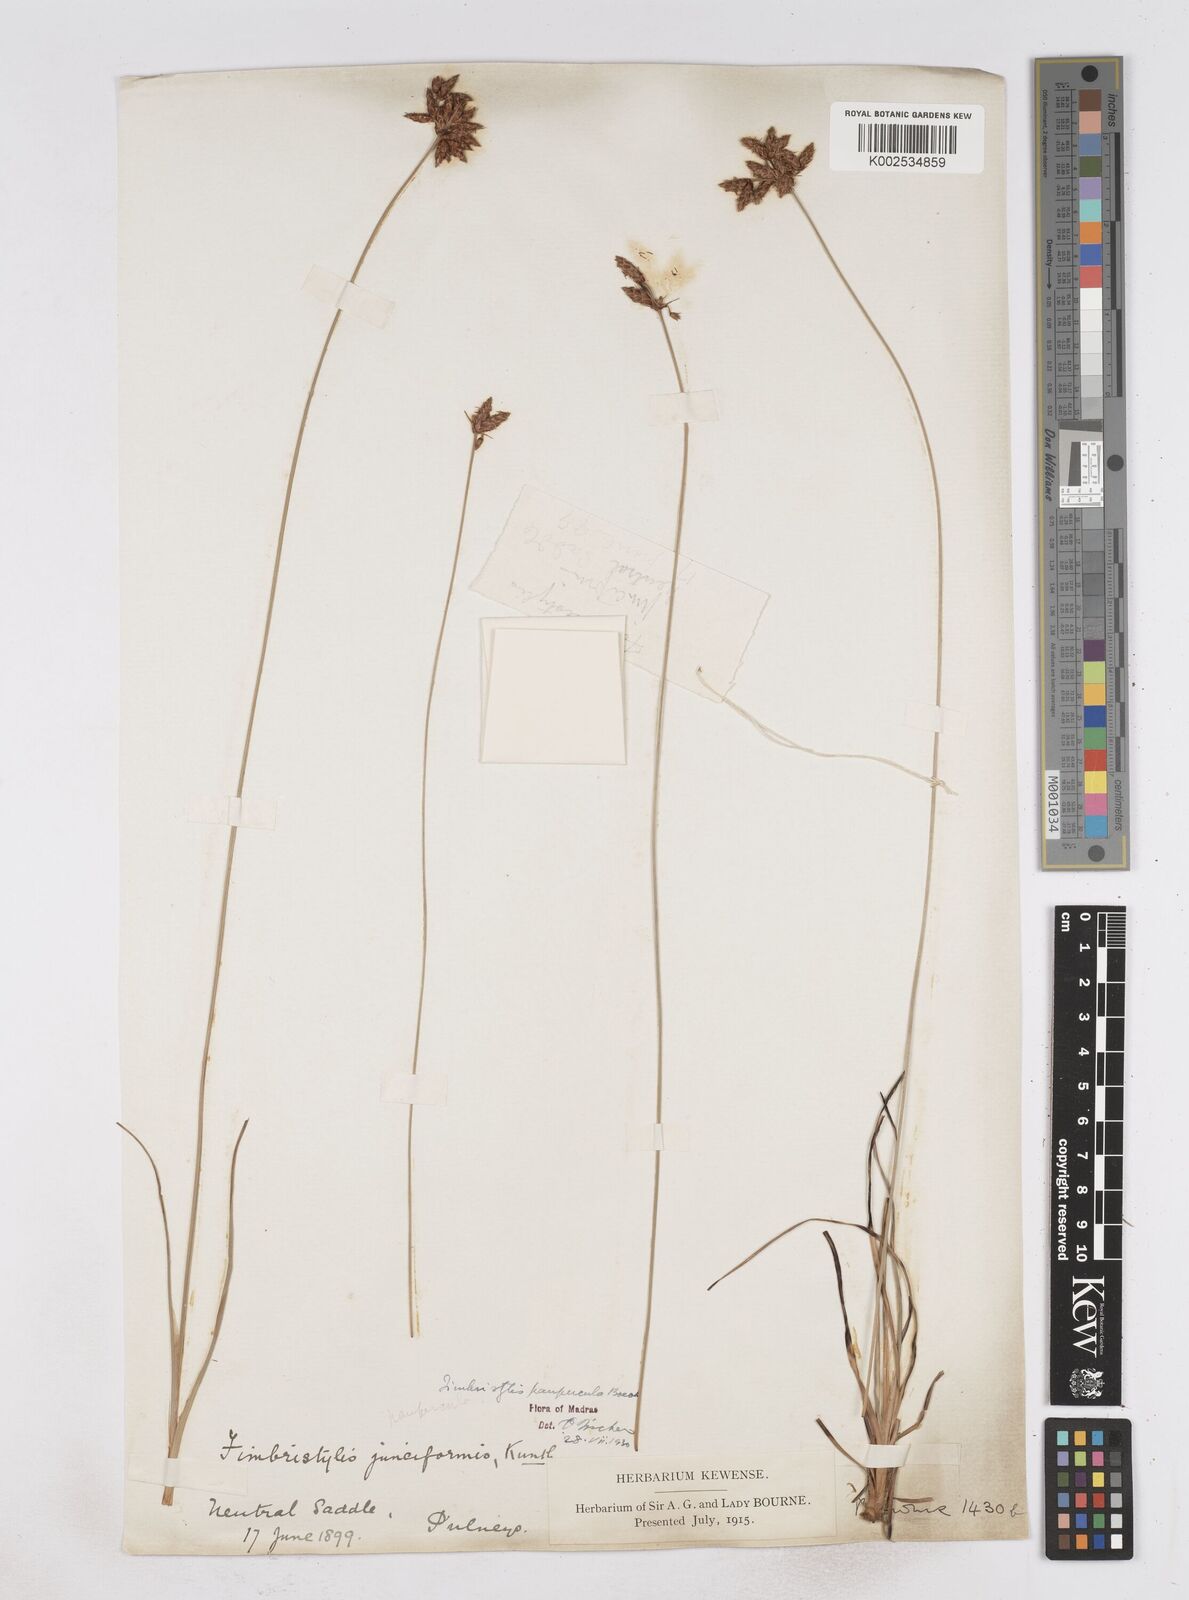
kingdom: Plantae
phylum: Tracheophyta
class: Liliopsida
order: Poales
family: Cyperaceae
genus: Fimbristylis
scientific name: Fimbristylis paupercula
